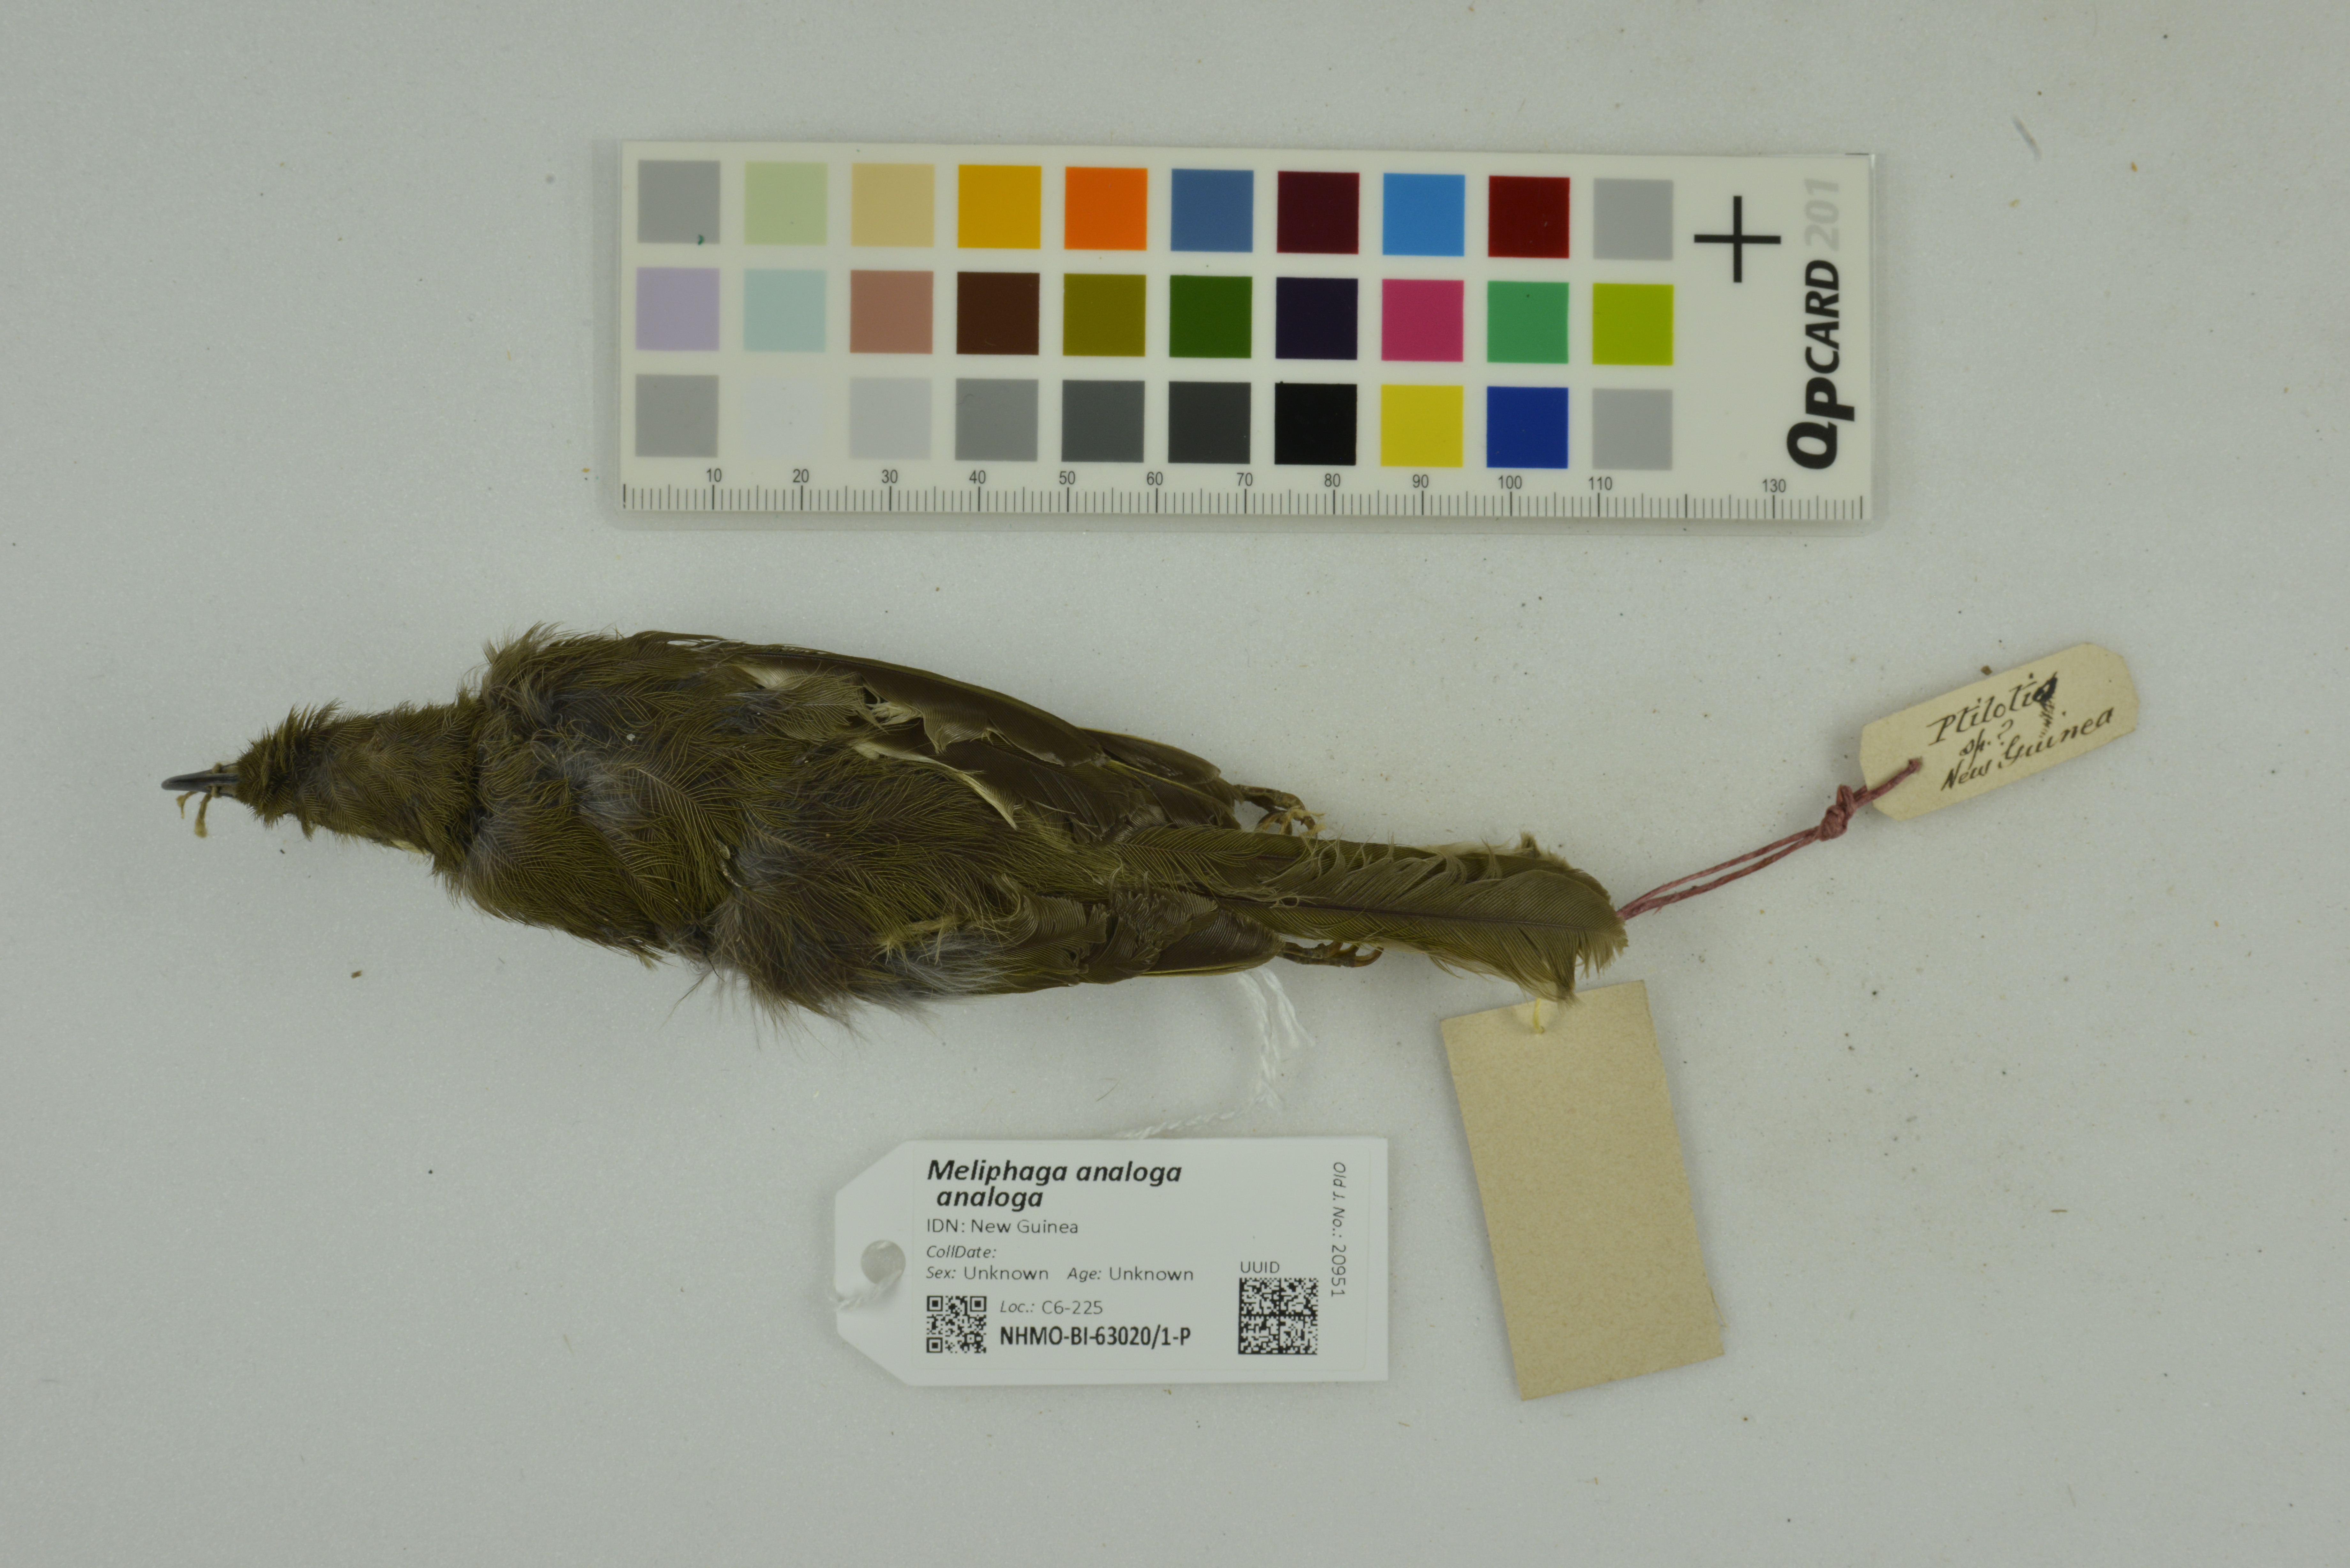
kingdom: Animalia
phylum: Chordata
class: Aves
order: Passeriformes
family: Meliphagidae
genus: Microptilotis
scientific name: Microptilotis analogus
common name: Mimic honeyeater
